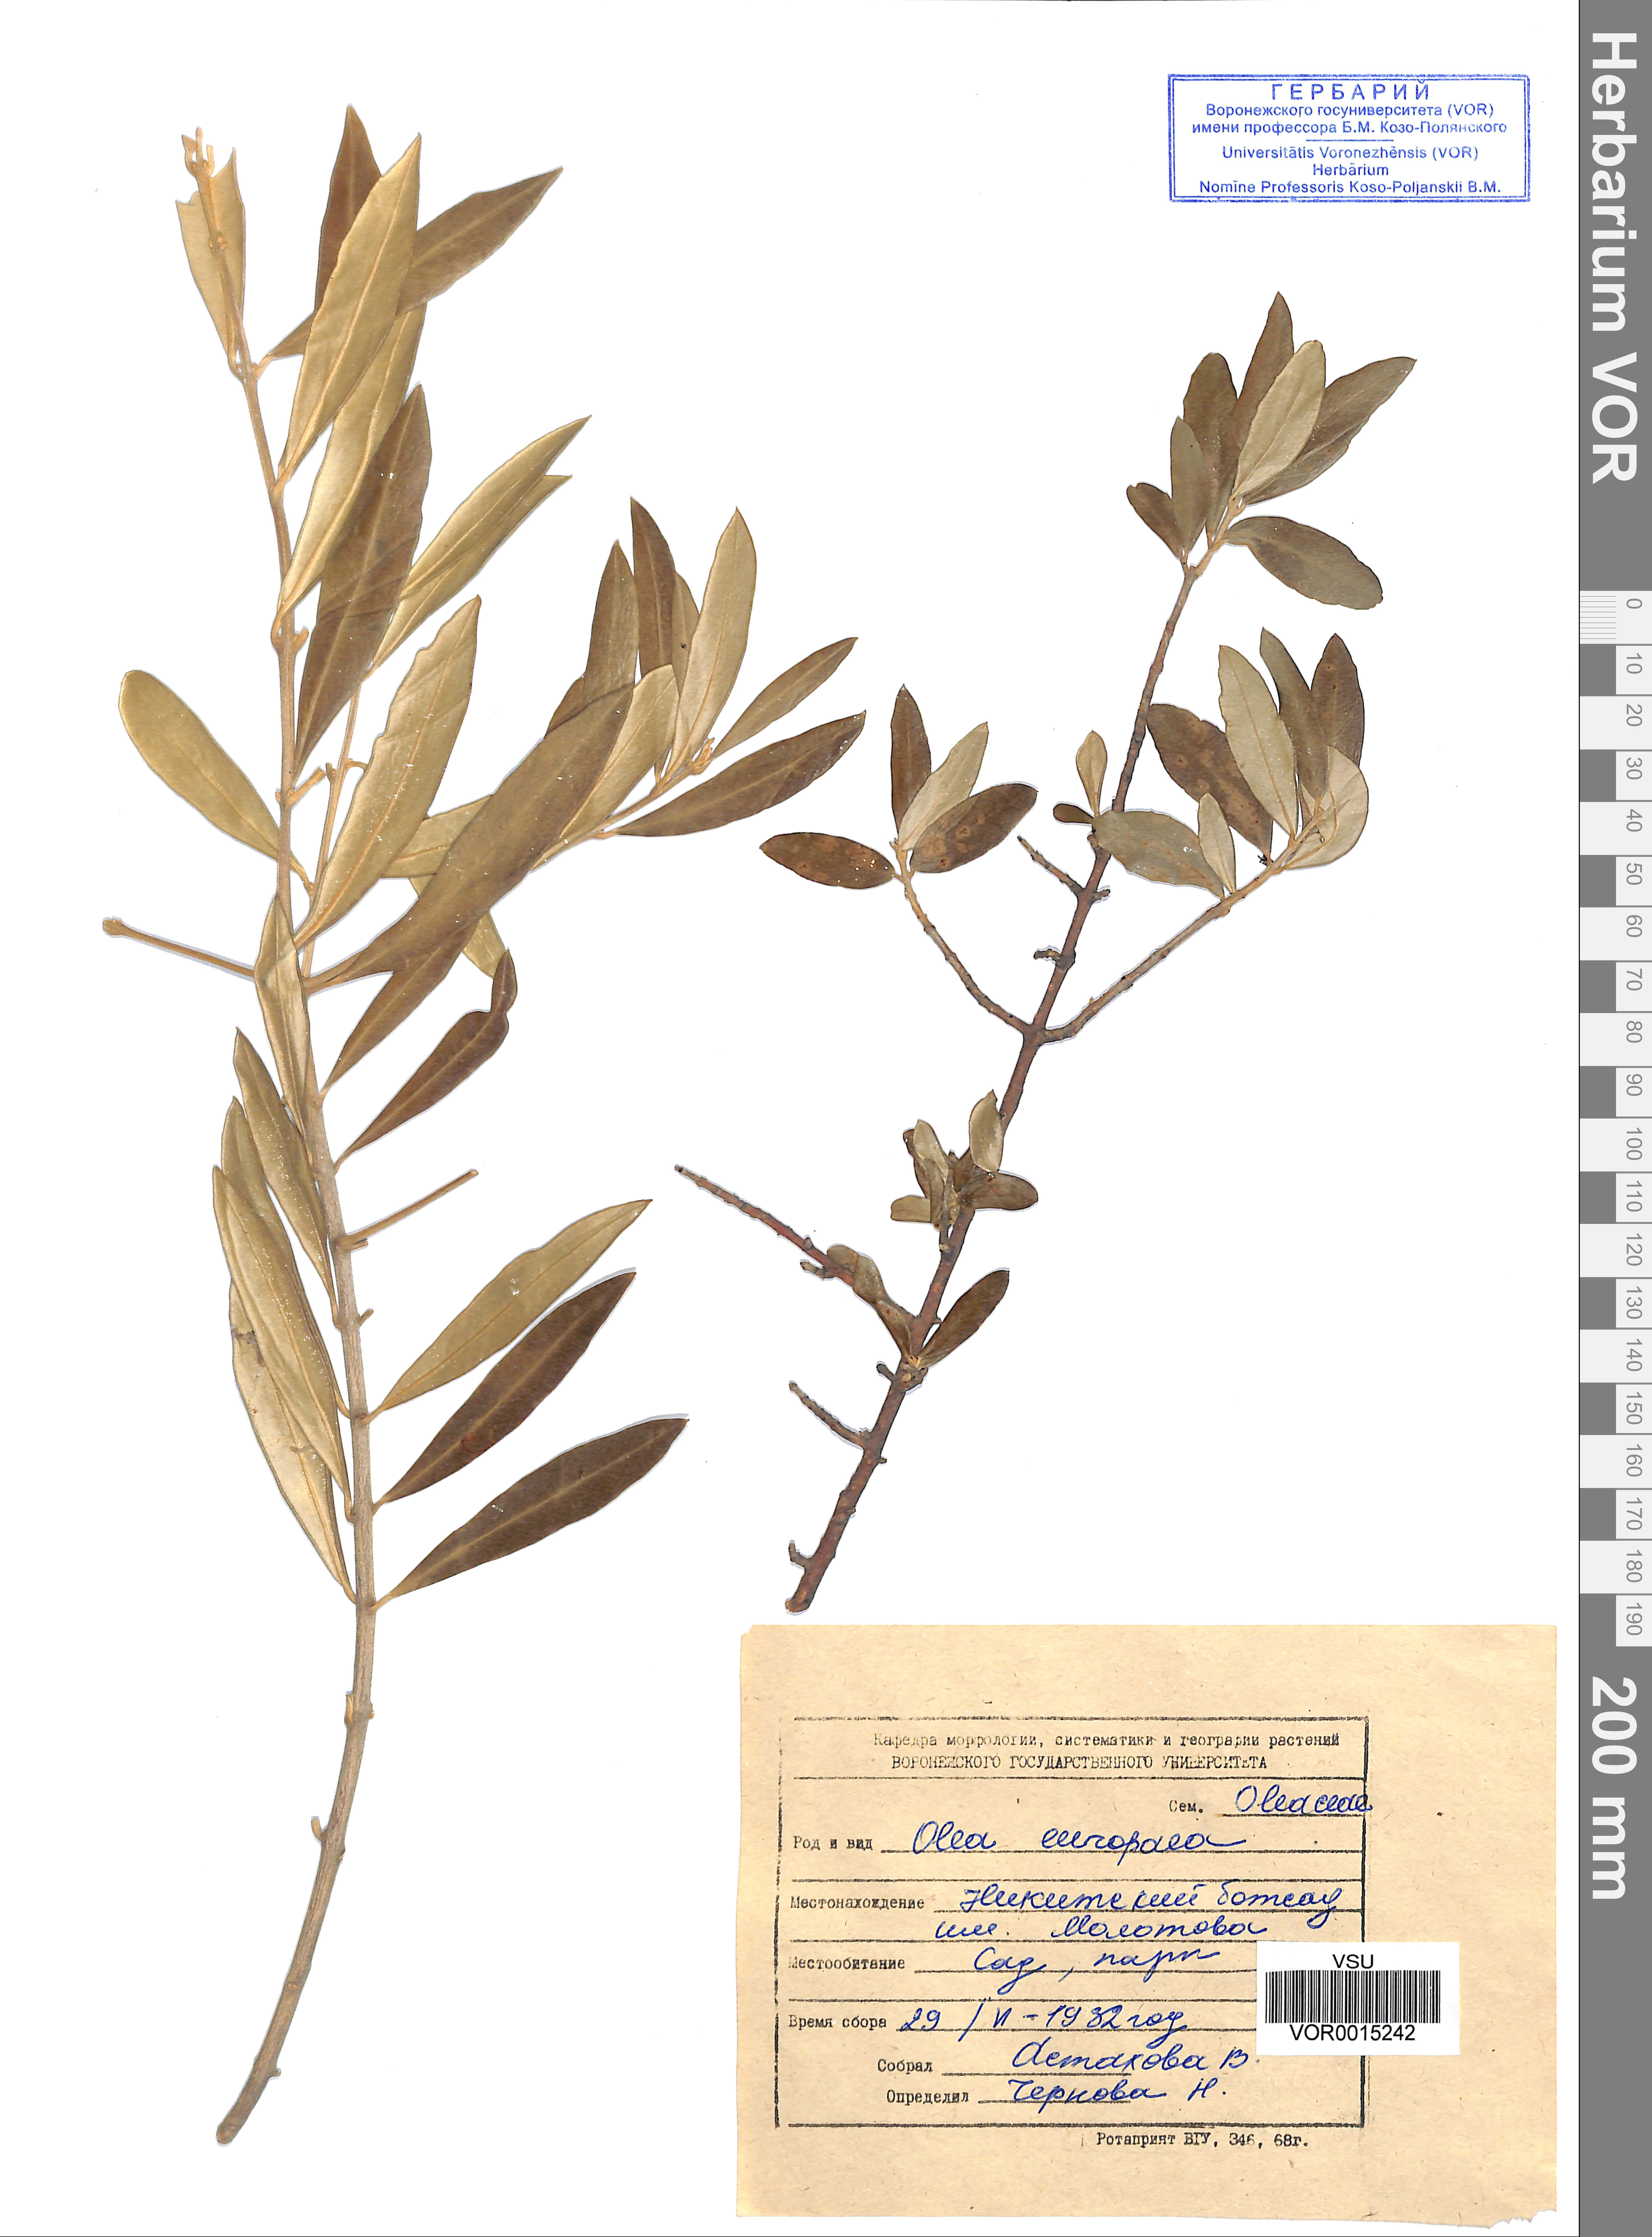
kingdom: Plantae
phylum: Tracheophyta
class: Magnoliopsida
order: Lamiales
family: Oleaceae
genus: Olea
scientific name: Olea europaea
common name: Olive
